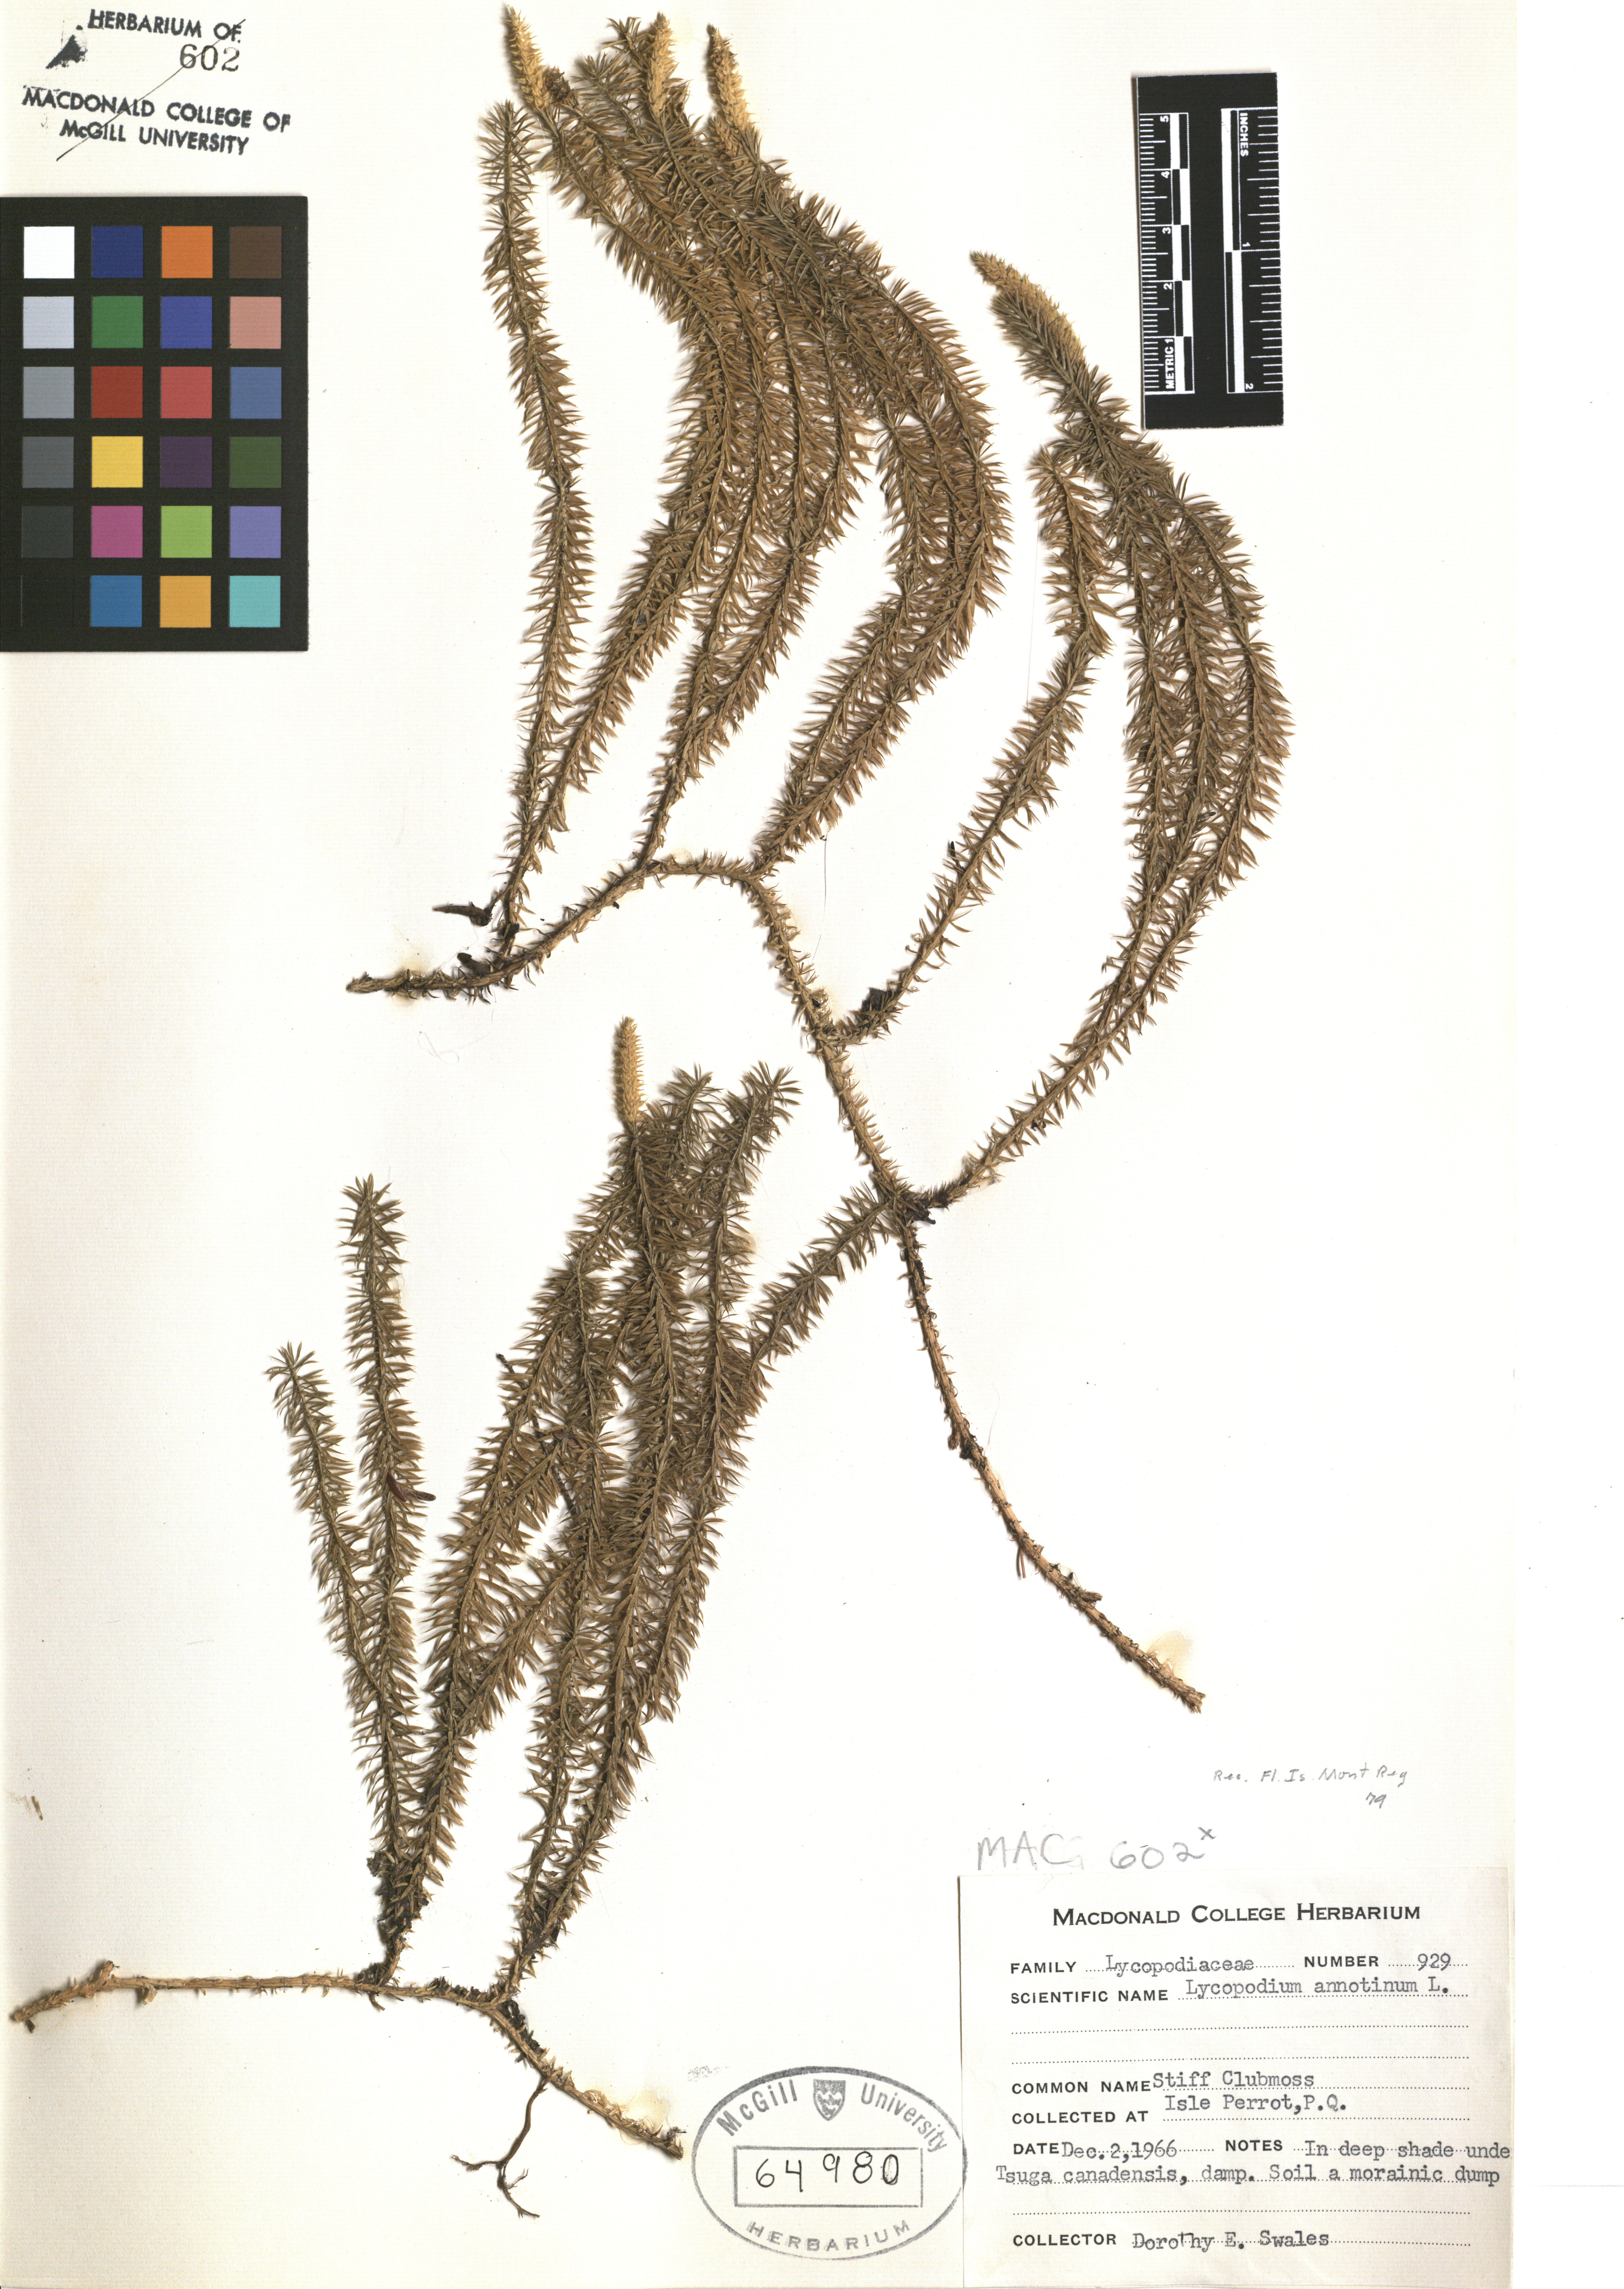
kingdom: Plantae
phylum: Tracheophyta
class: Lycopodiopsida
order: Lycopodiales
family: Lycopodiaceae
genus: Spinulum
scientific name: Spinulum annotinum
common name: Interrupted club-moss
